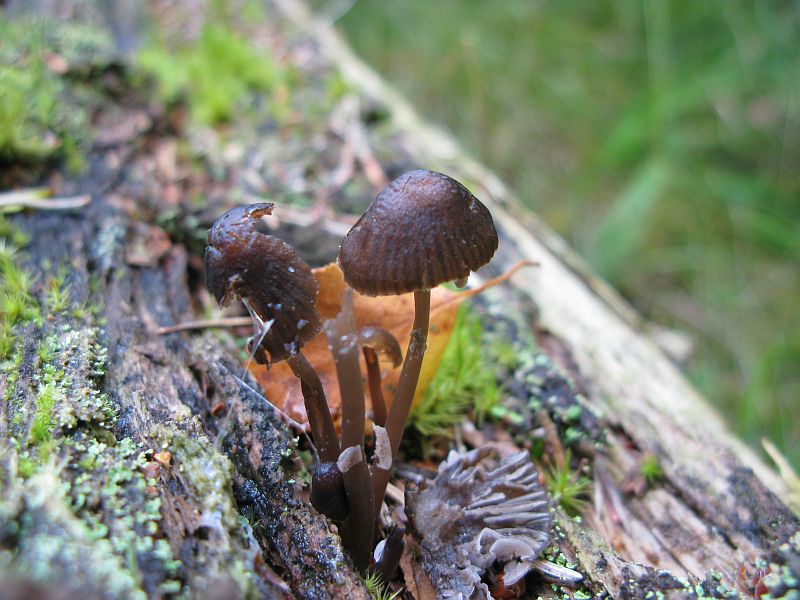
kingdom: Fungi
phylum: Basidiomycota
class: Agaricomycetes
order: Agaricales
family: Mycenaceae
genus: Mycena
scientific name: Mycena stipata
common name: stinkende huesvamp
